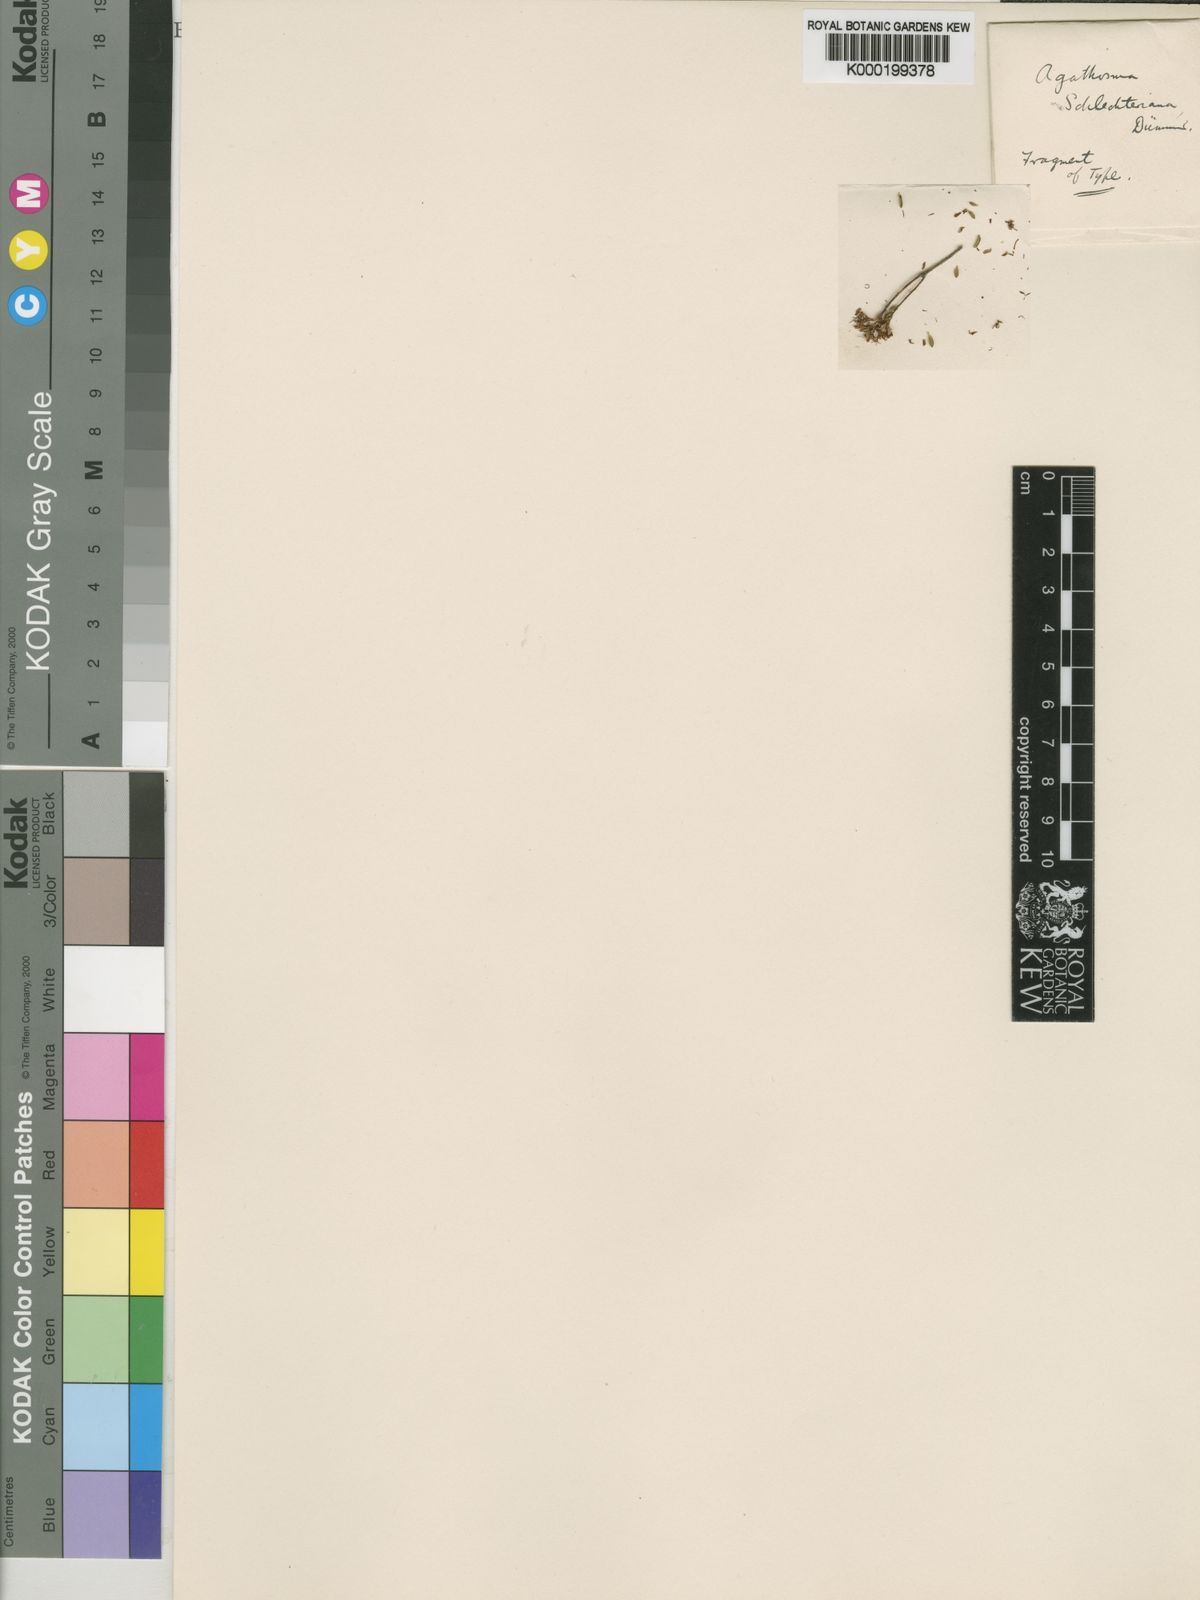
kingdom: Plantae
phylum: Tracheophyta
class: Magnoliopsida
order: Sapindales
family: Rutaceae
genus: Agathosma
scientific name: Agathosma schlechteriana
